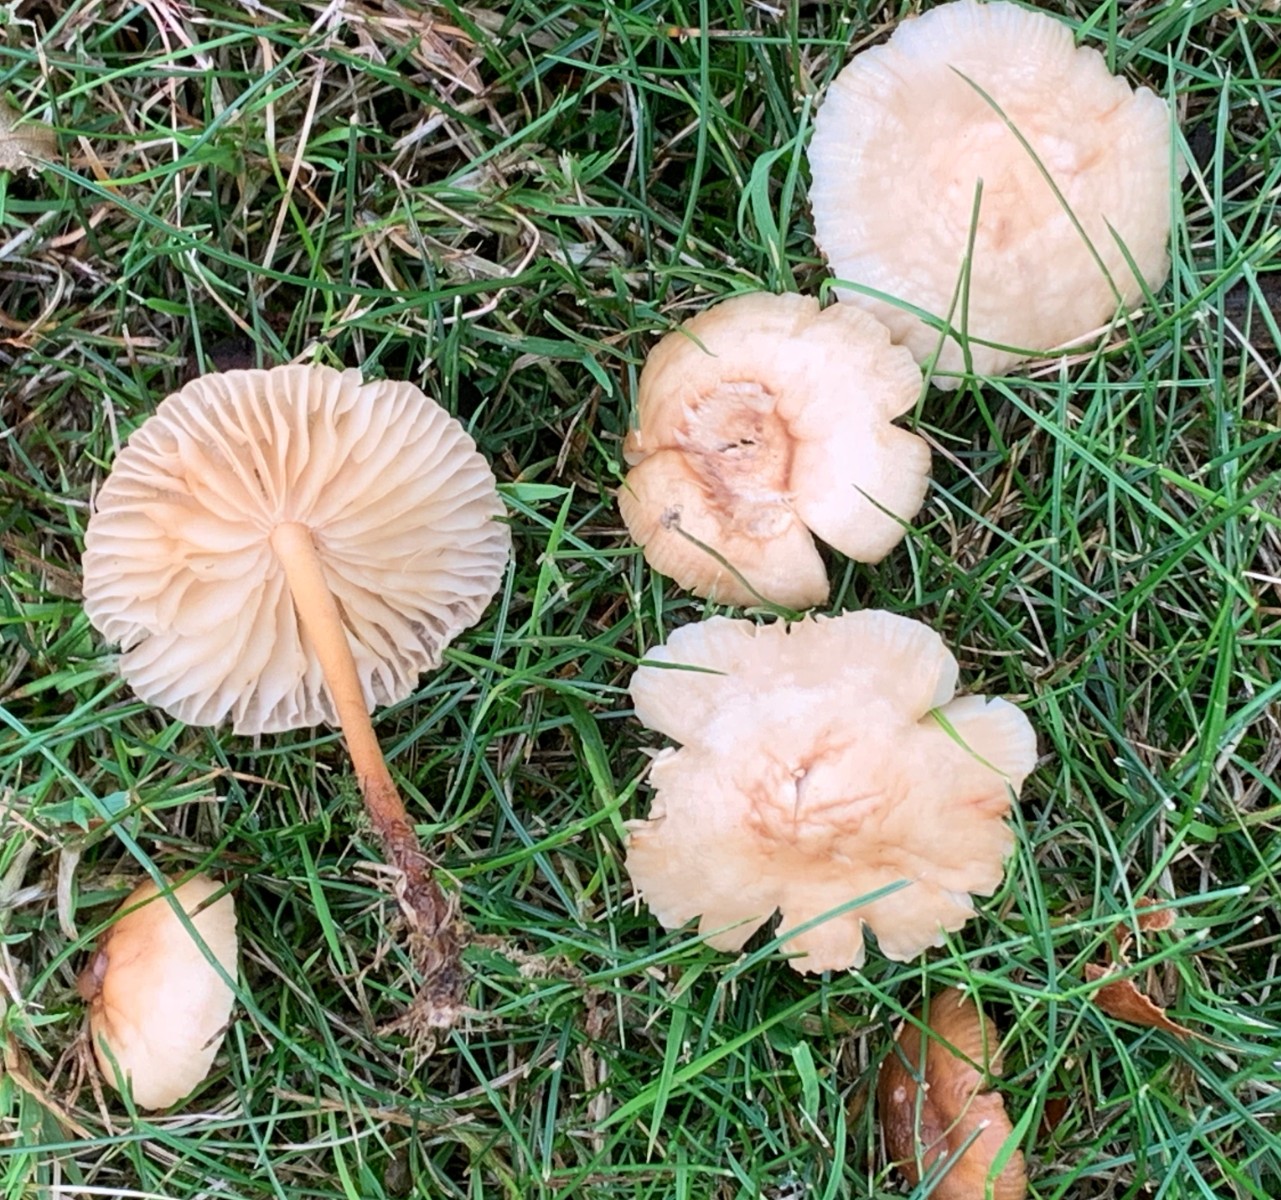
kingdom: Fungi
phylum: Basidiomycota
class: Agaricomycetes
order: Agaricales
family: Marasmiaceae
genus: Marasmius
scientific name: Marasmius oreades
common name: elledans-bruskhat
